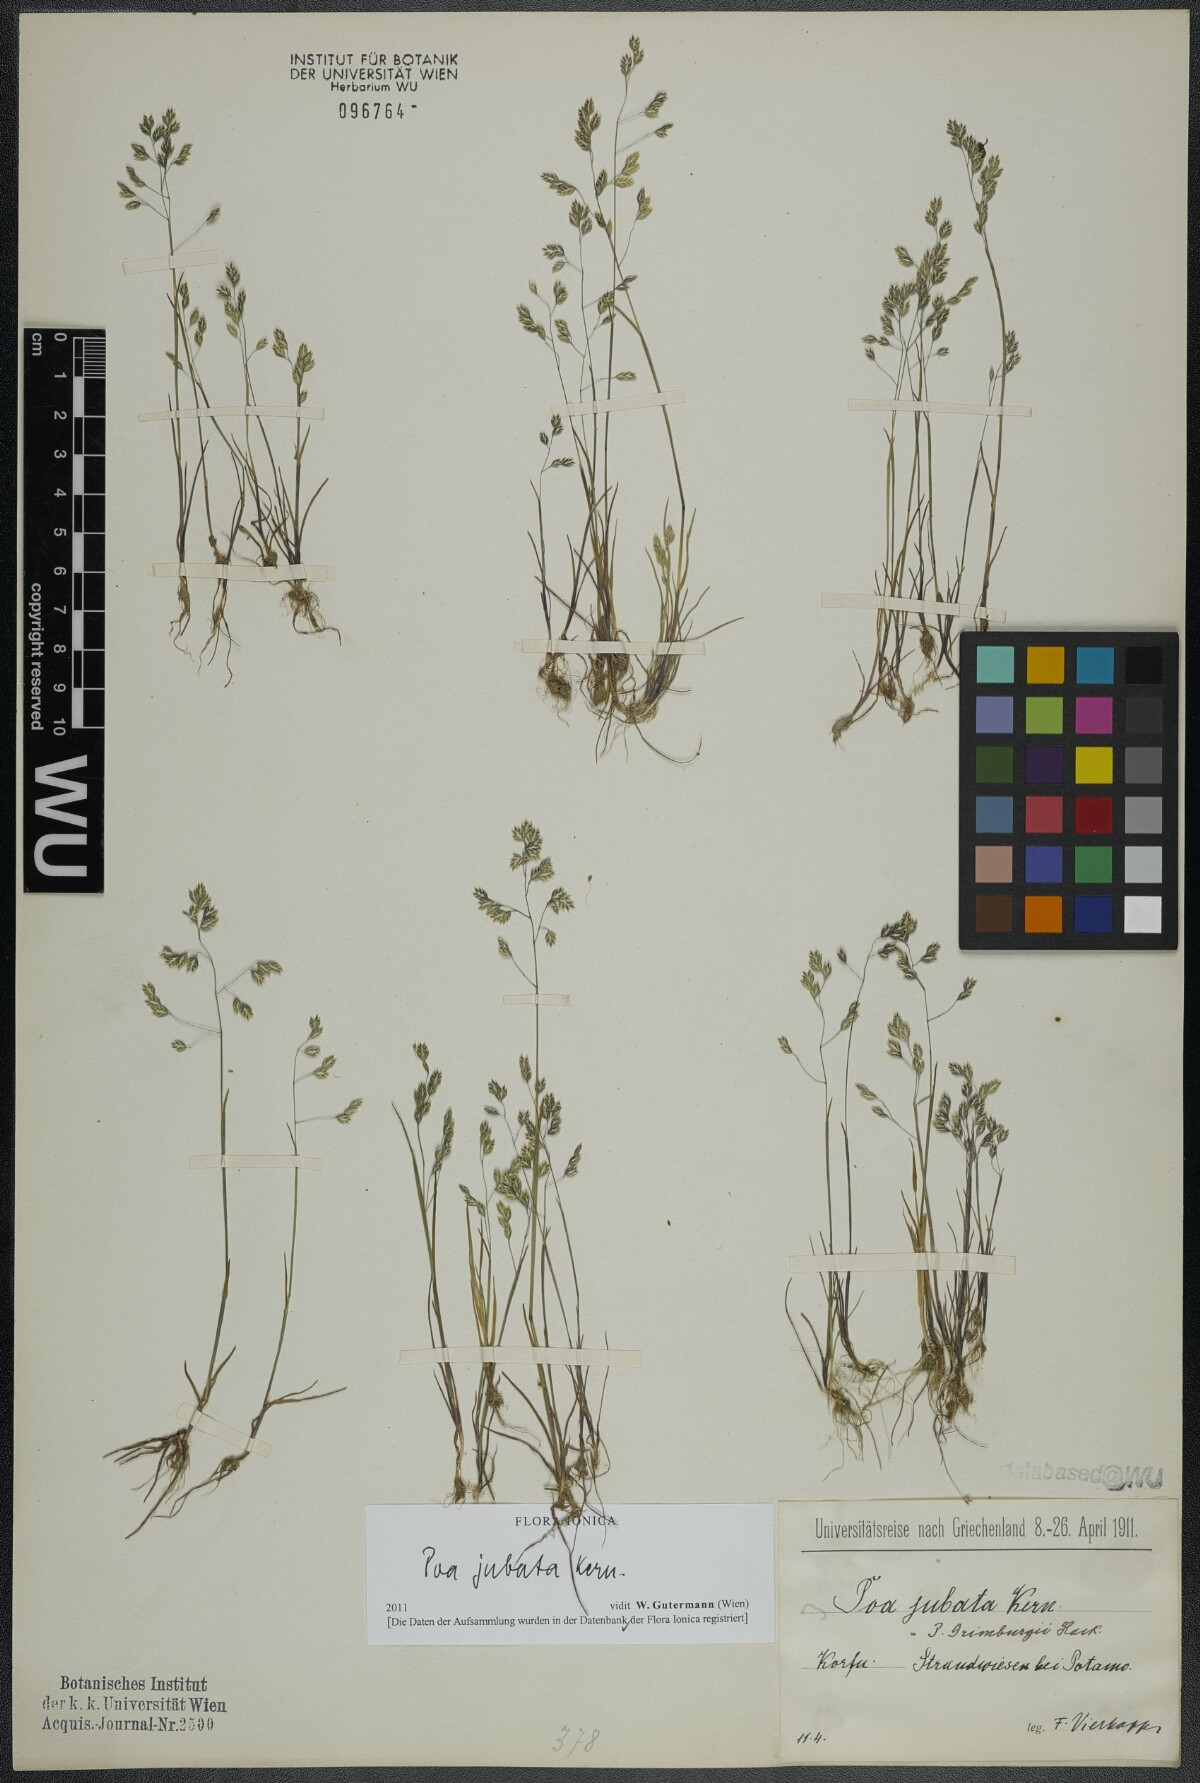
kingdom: Plantae
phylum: Tracheophyta
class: Liliopsida
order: Poales
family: Poaceae
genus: Poa
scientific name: Poa jubata
